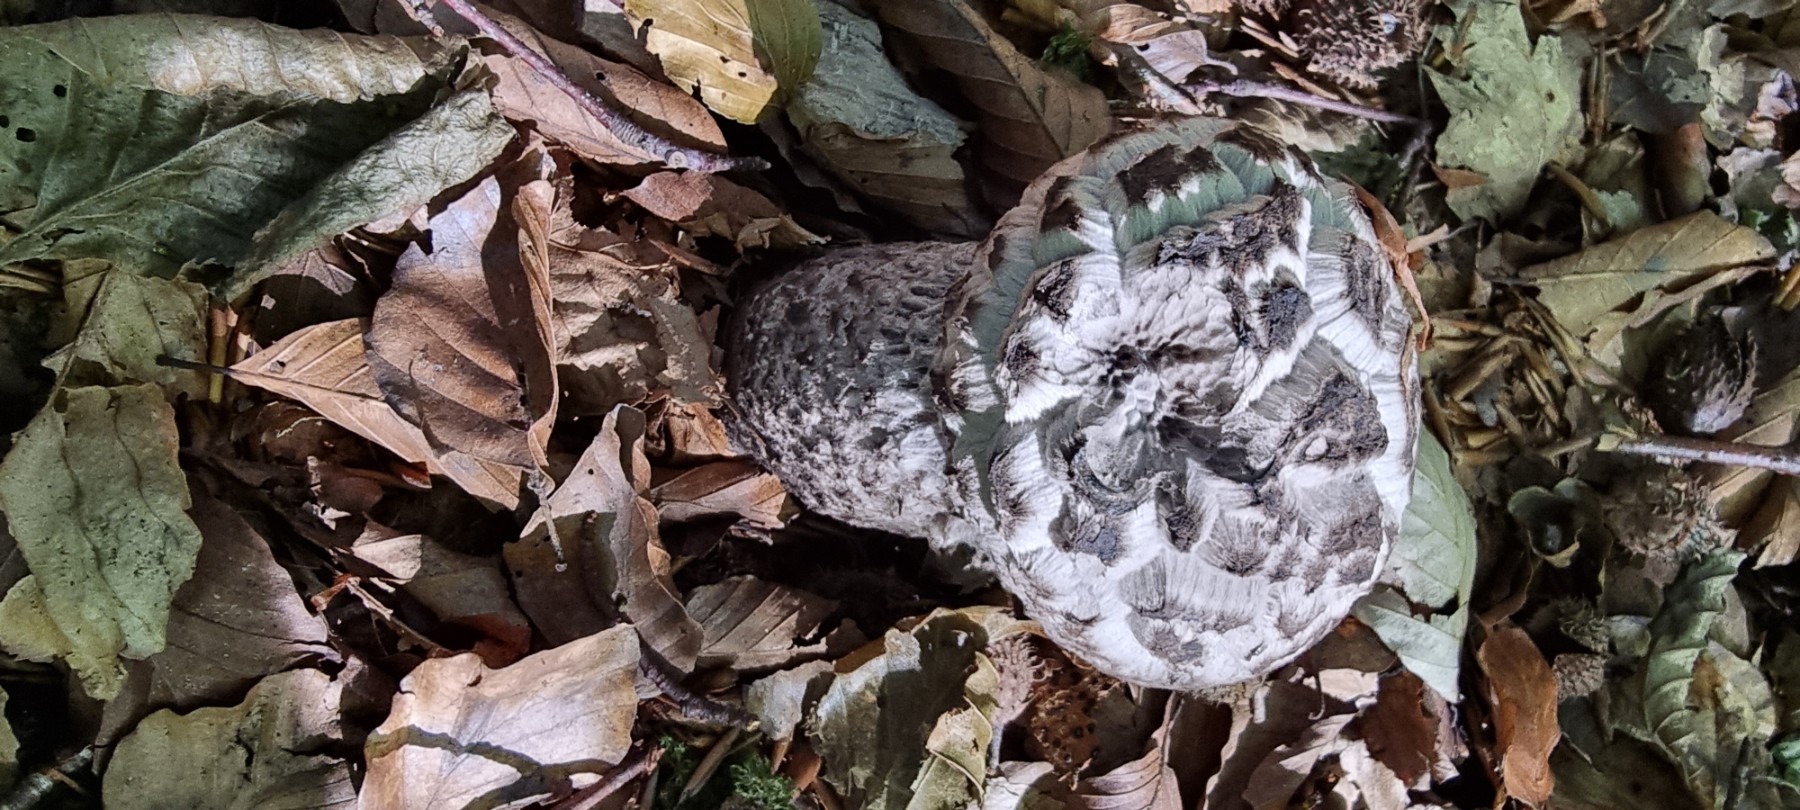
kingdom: Fungi
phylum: Basidiomycota
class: Agaricomycetes
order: Boletales
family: Boletaceae
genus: Strobilomyces
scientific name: Strobilomyces strobilaceus
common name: koglerørhat
